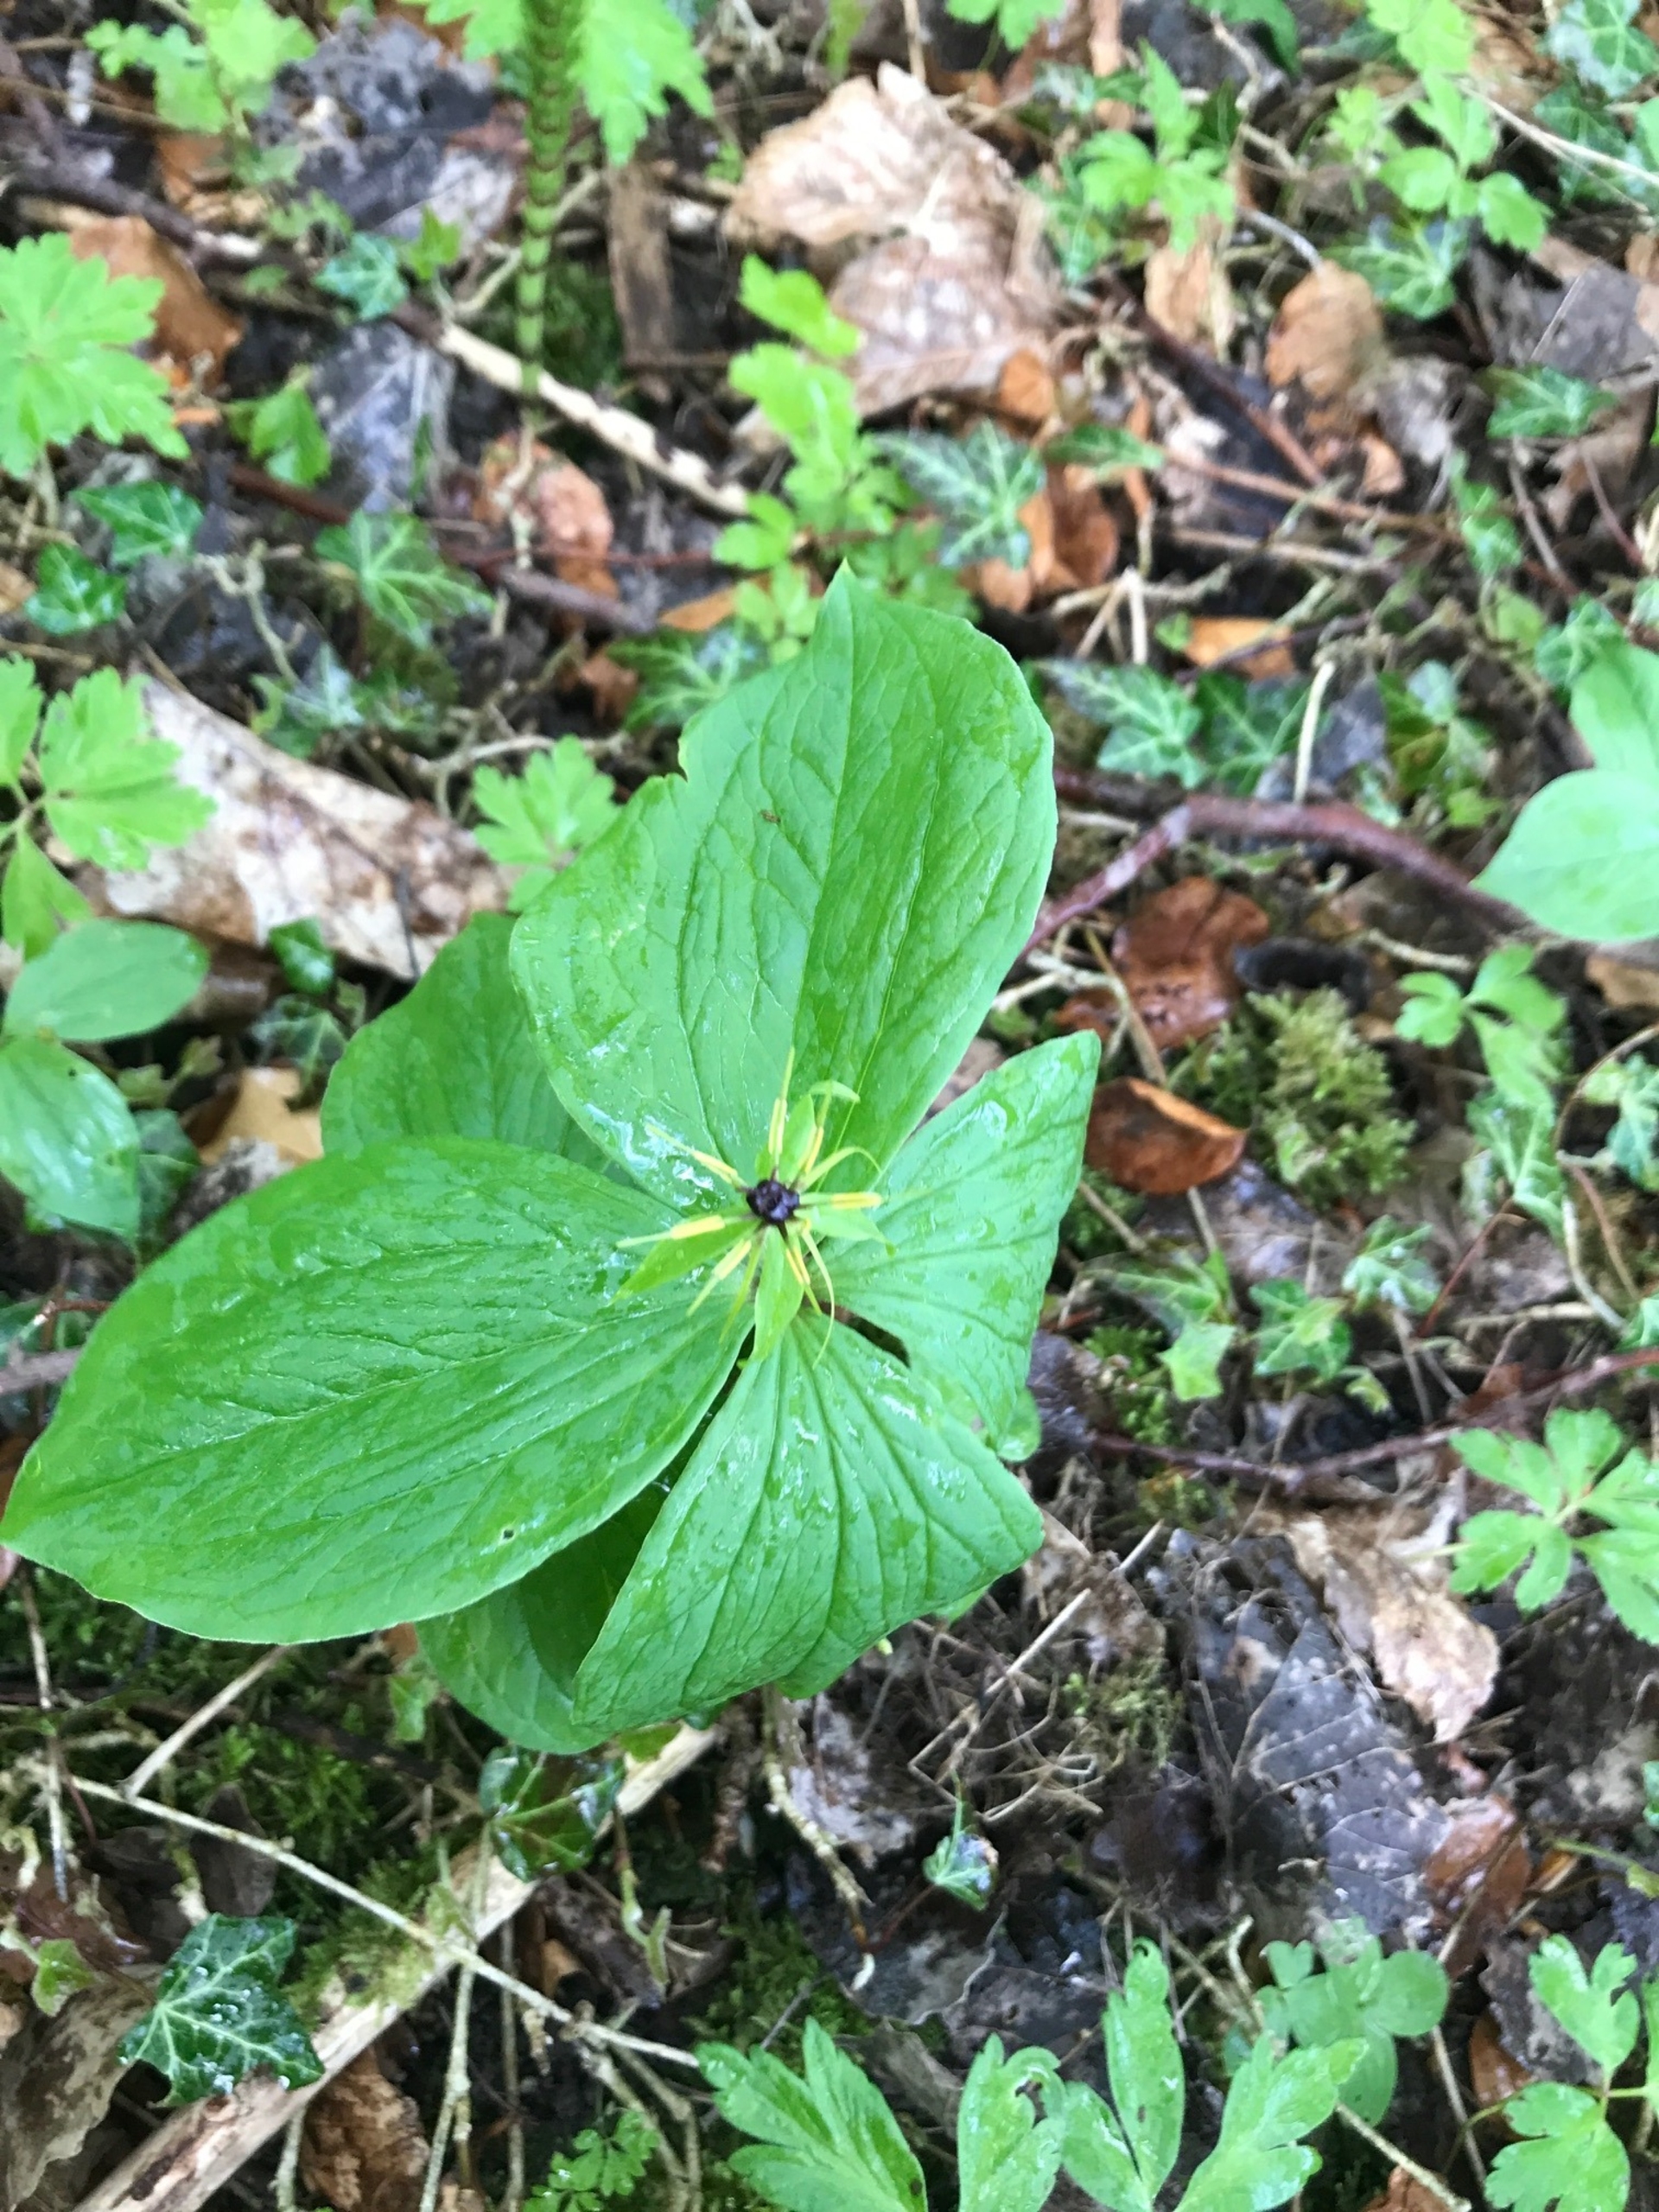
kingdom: Plantae
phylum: Tracheophyta
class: Liliopsida
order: Liliales
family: Melanthiaceae
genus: Paris
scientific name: Paris quadrifolia
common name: Firblad
